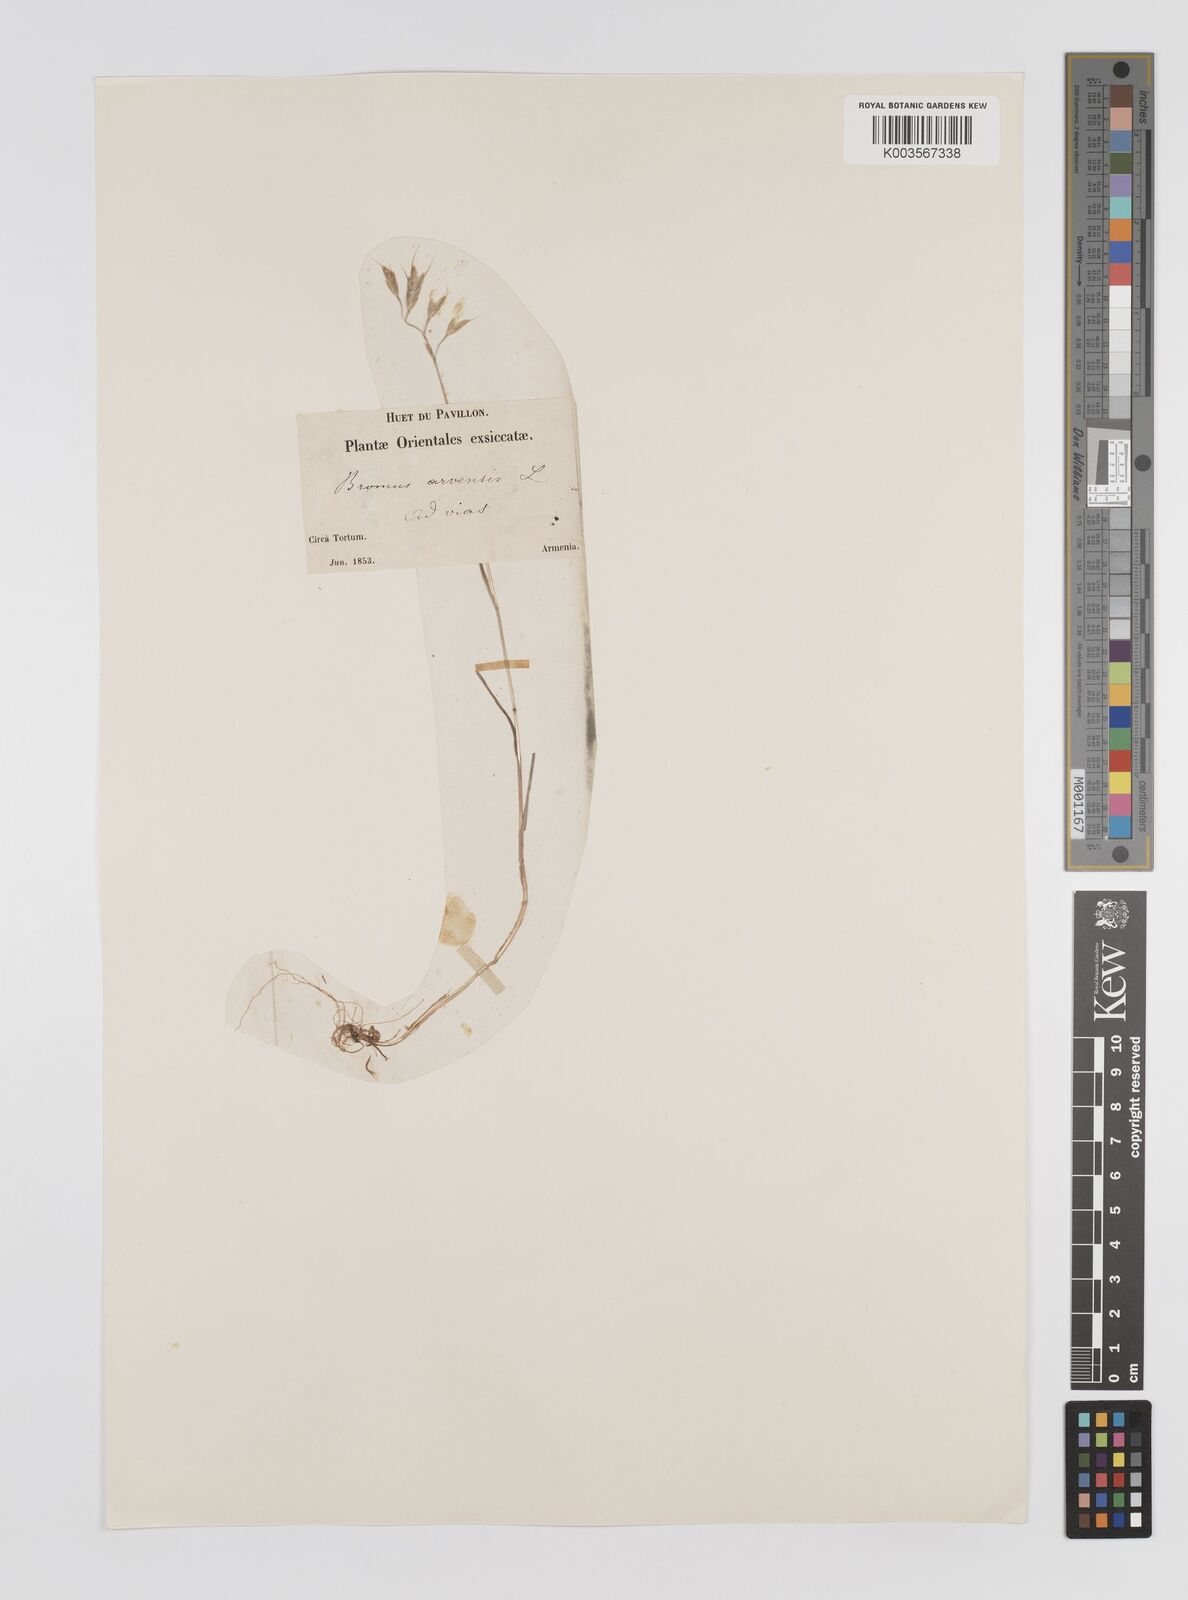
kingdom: Plantae
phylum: Tracheophyta
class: Liliopsida
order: Poales
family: Poaceae
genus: Bromus
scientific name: Bromus erectus
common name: Erect brome
